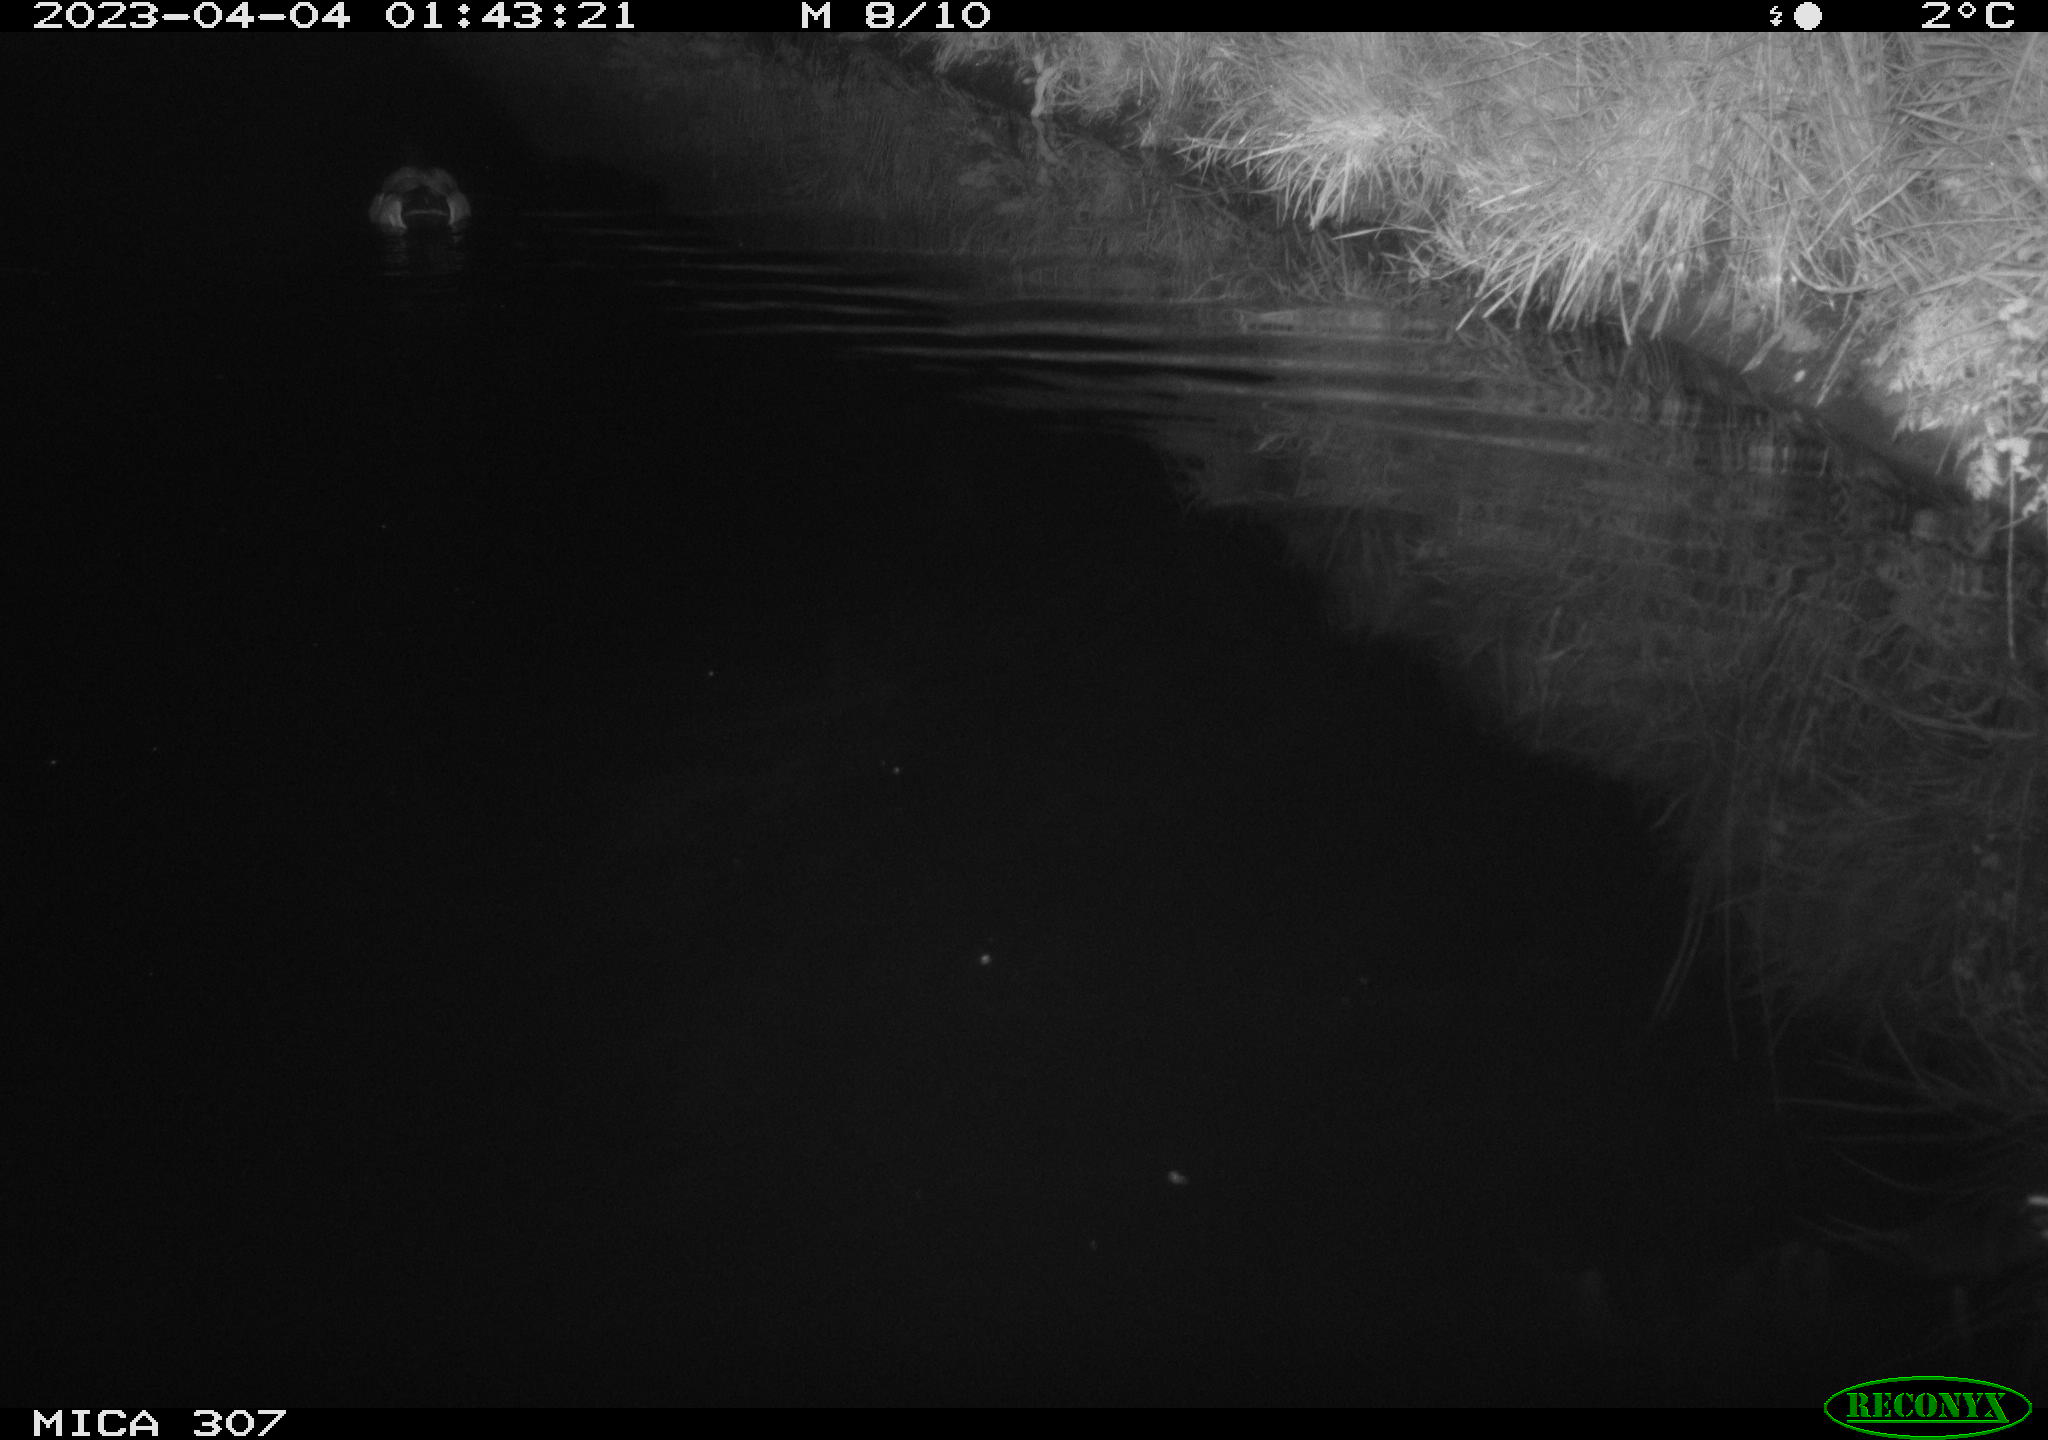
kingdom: Animalia
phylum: Chordata
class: Aves
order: Anseriformes
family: Anatidae
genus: Anas
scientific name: Anas
